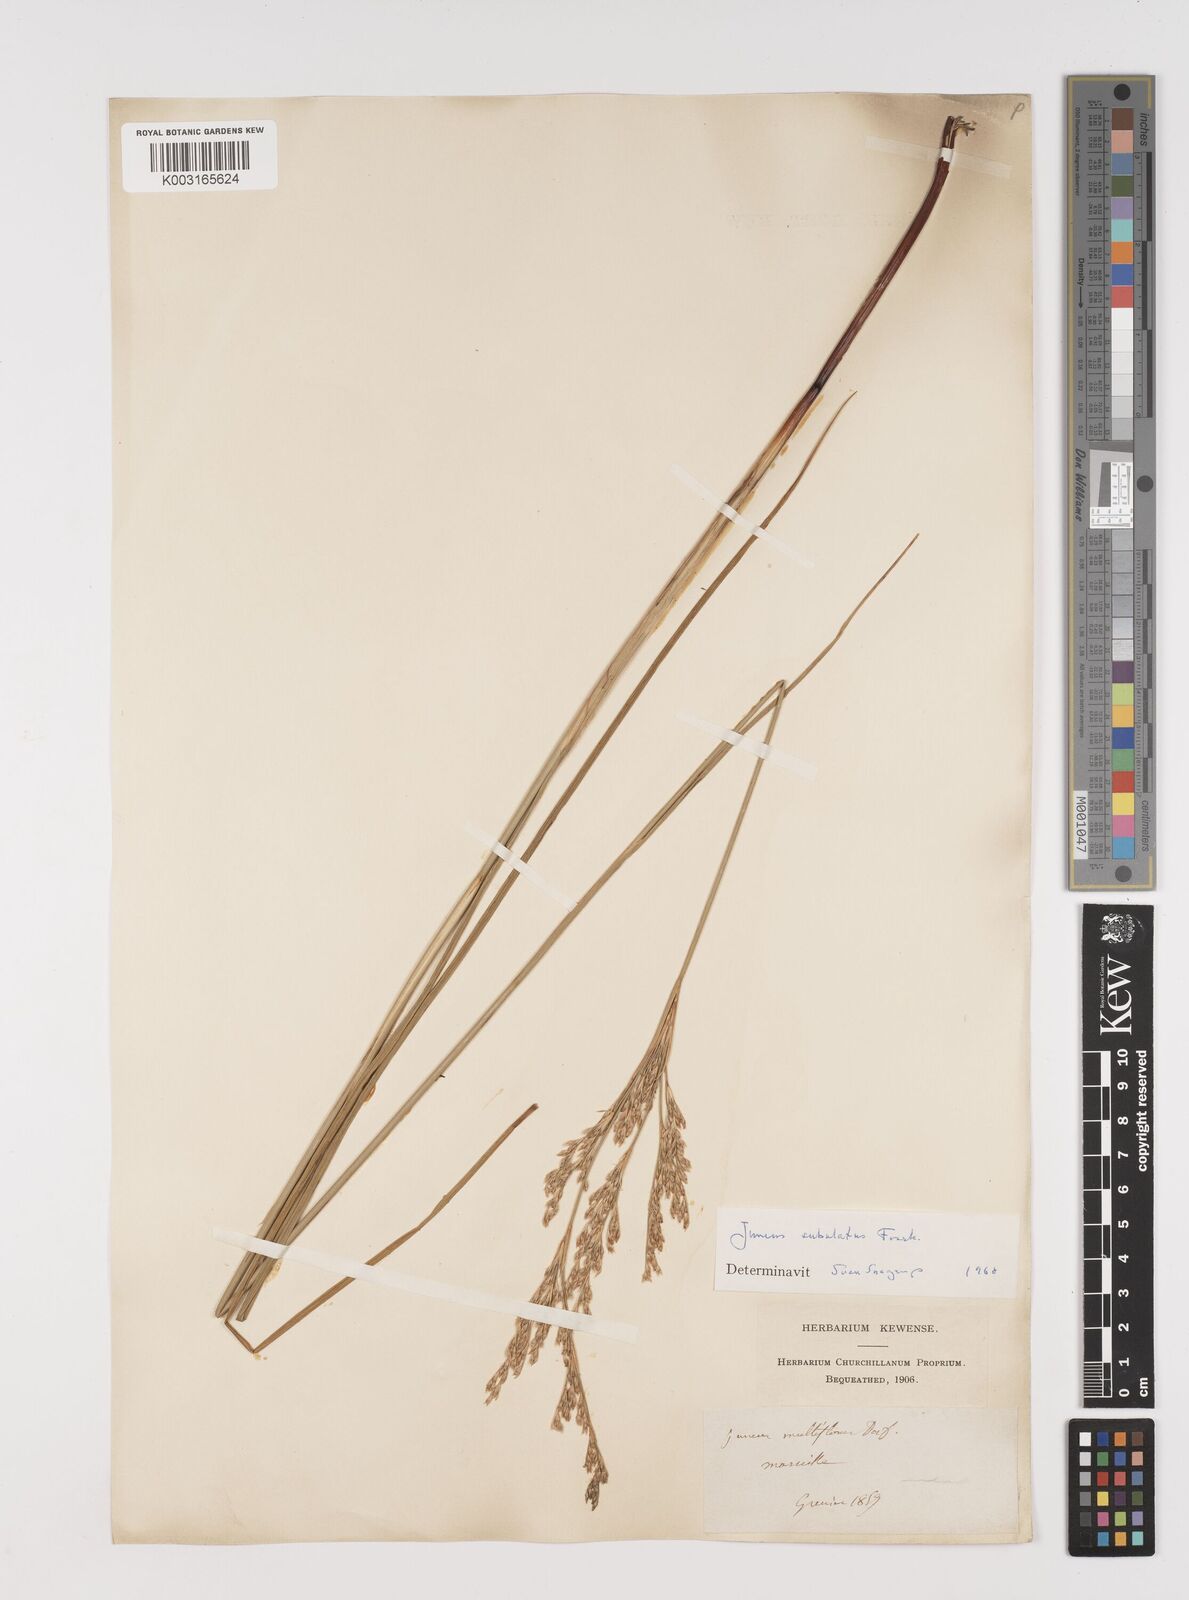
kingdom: Plantae
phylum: Tracheophyta
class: Liliopsida
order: Poales
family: Juncaceae
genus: Juncus
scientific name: Juncus subulatus
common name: Somerset rush
